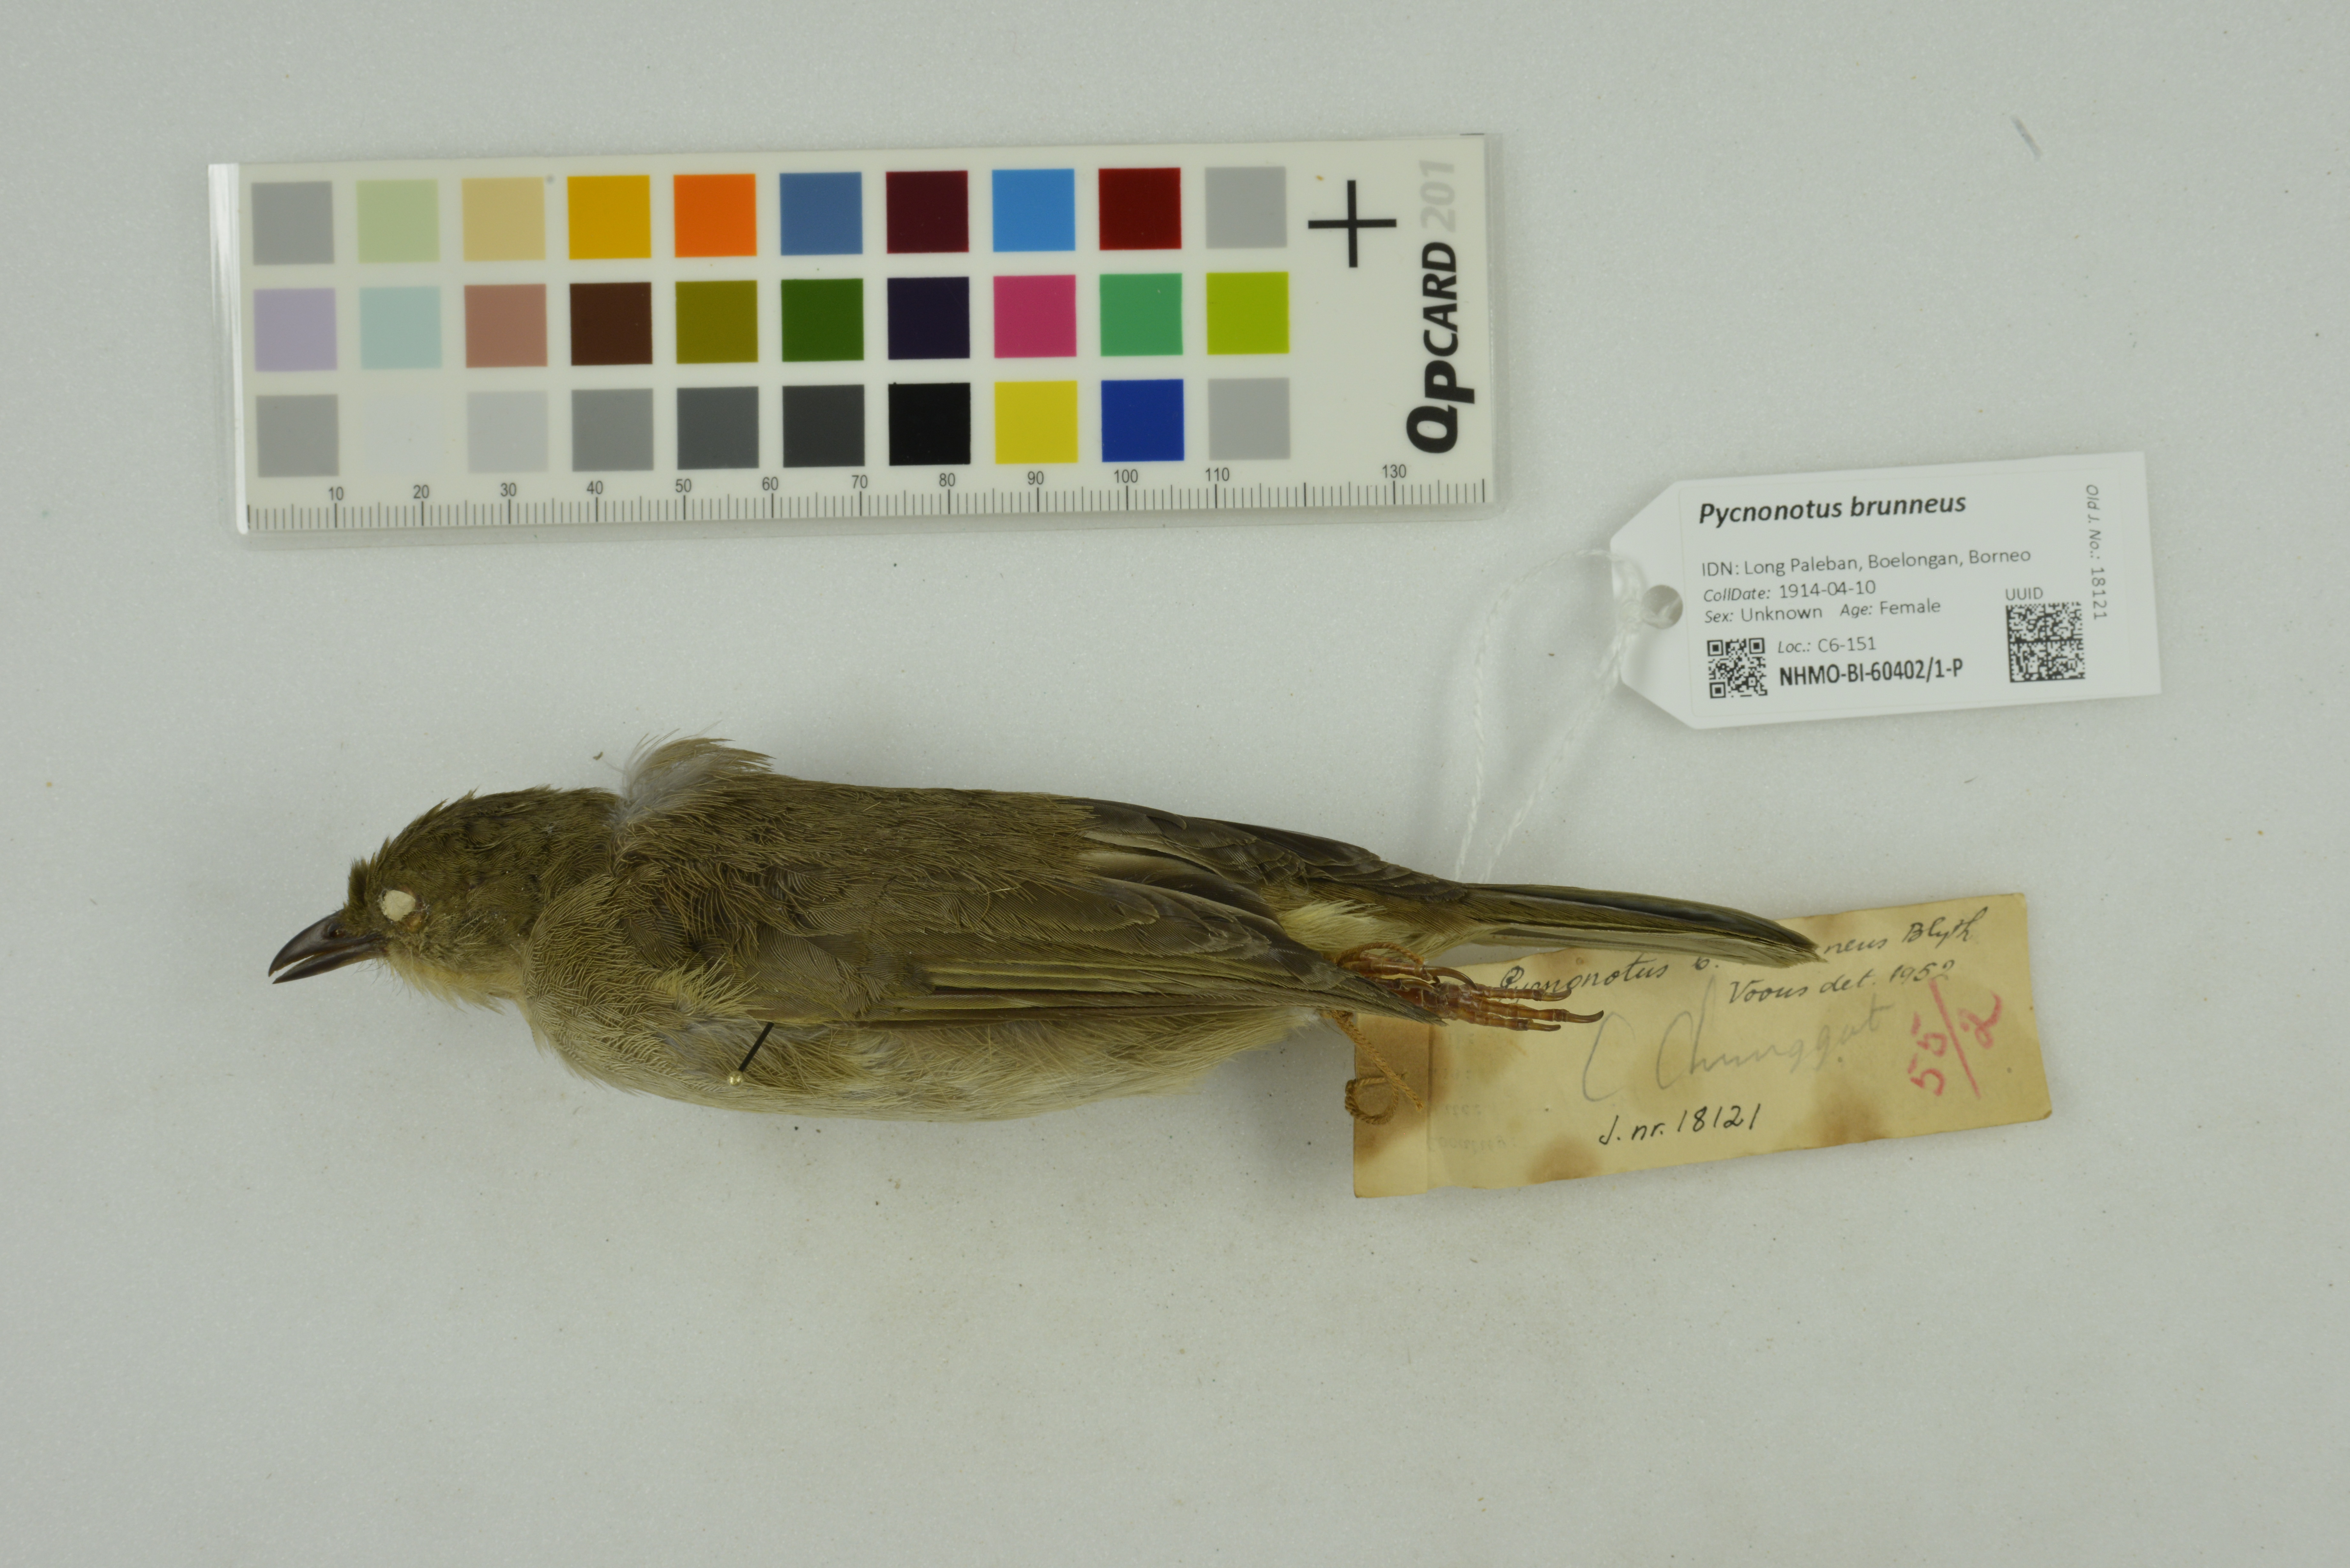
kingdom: Animalia
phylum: Chordata
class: Aves
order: Passeriformes
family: Pycnonotidae
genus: Pycnonotus
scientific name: Pycnonotus brunneus
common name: Asian red-eyed bulbul
